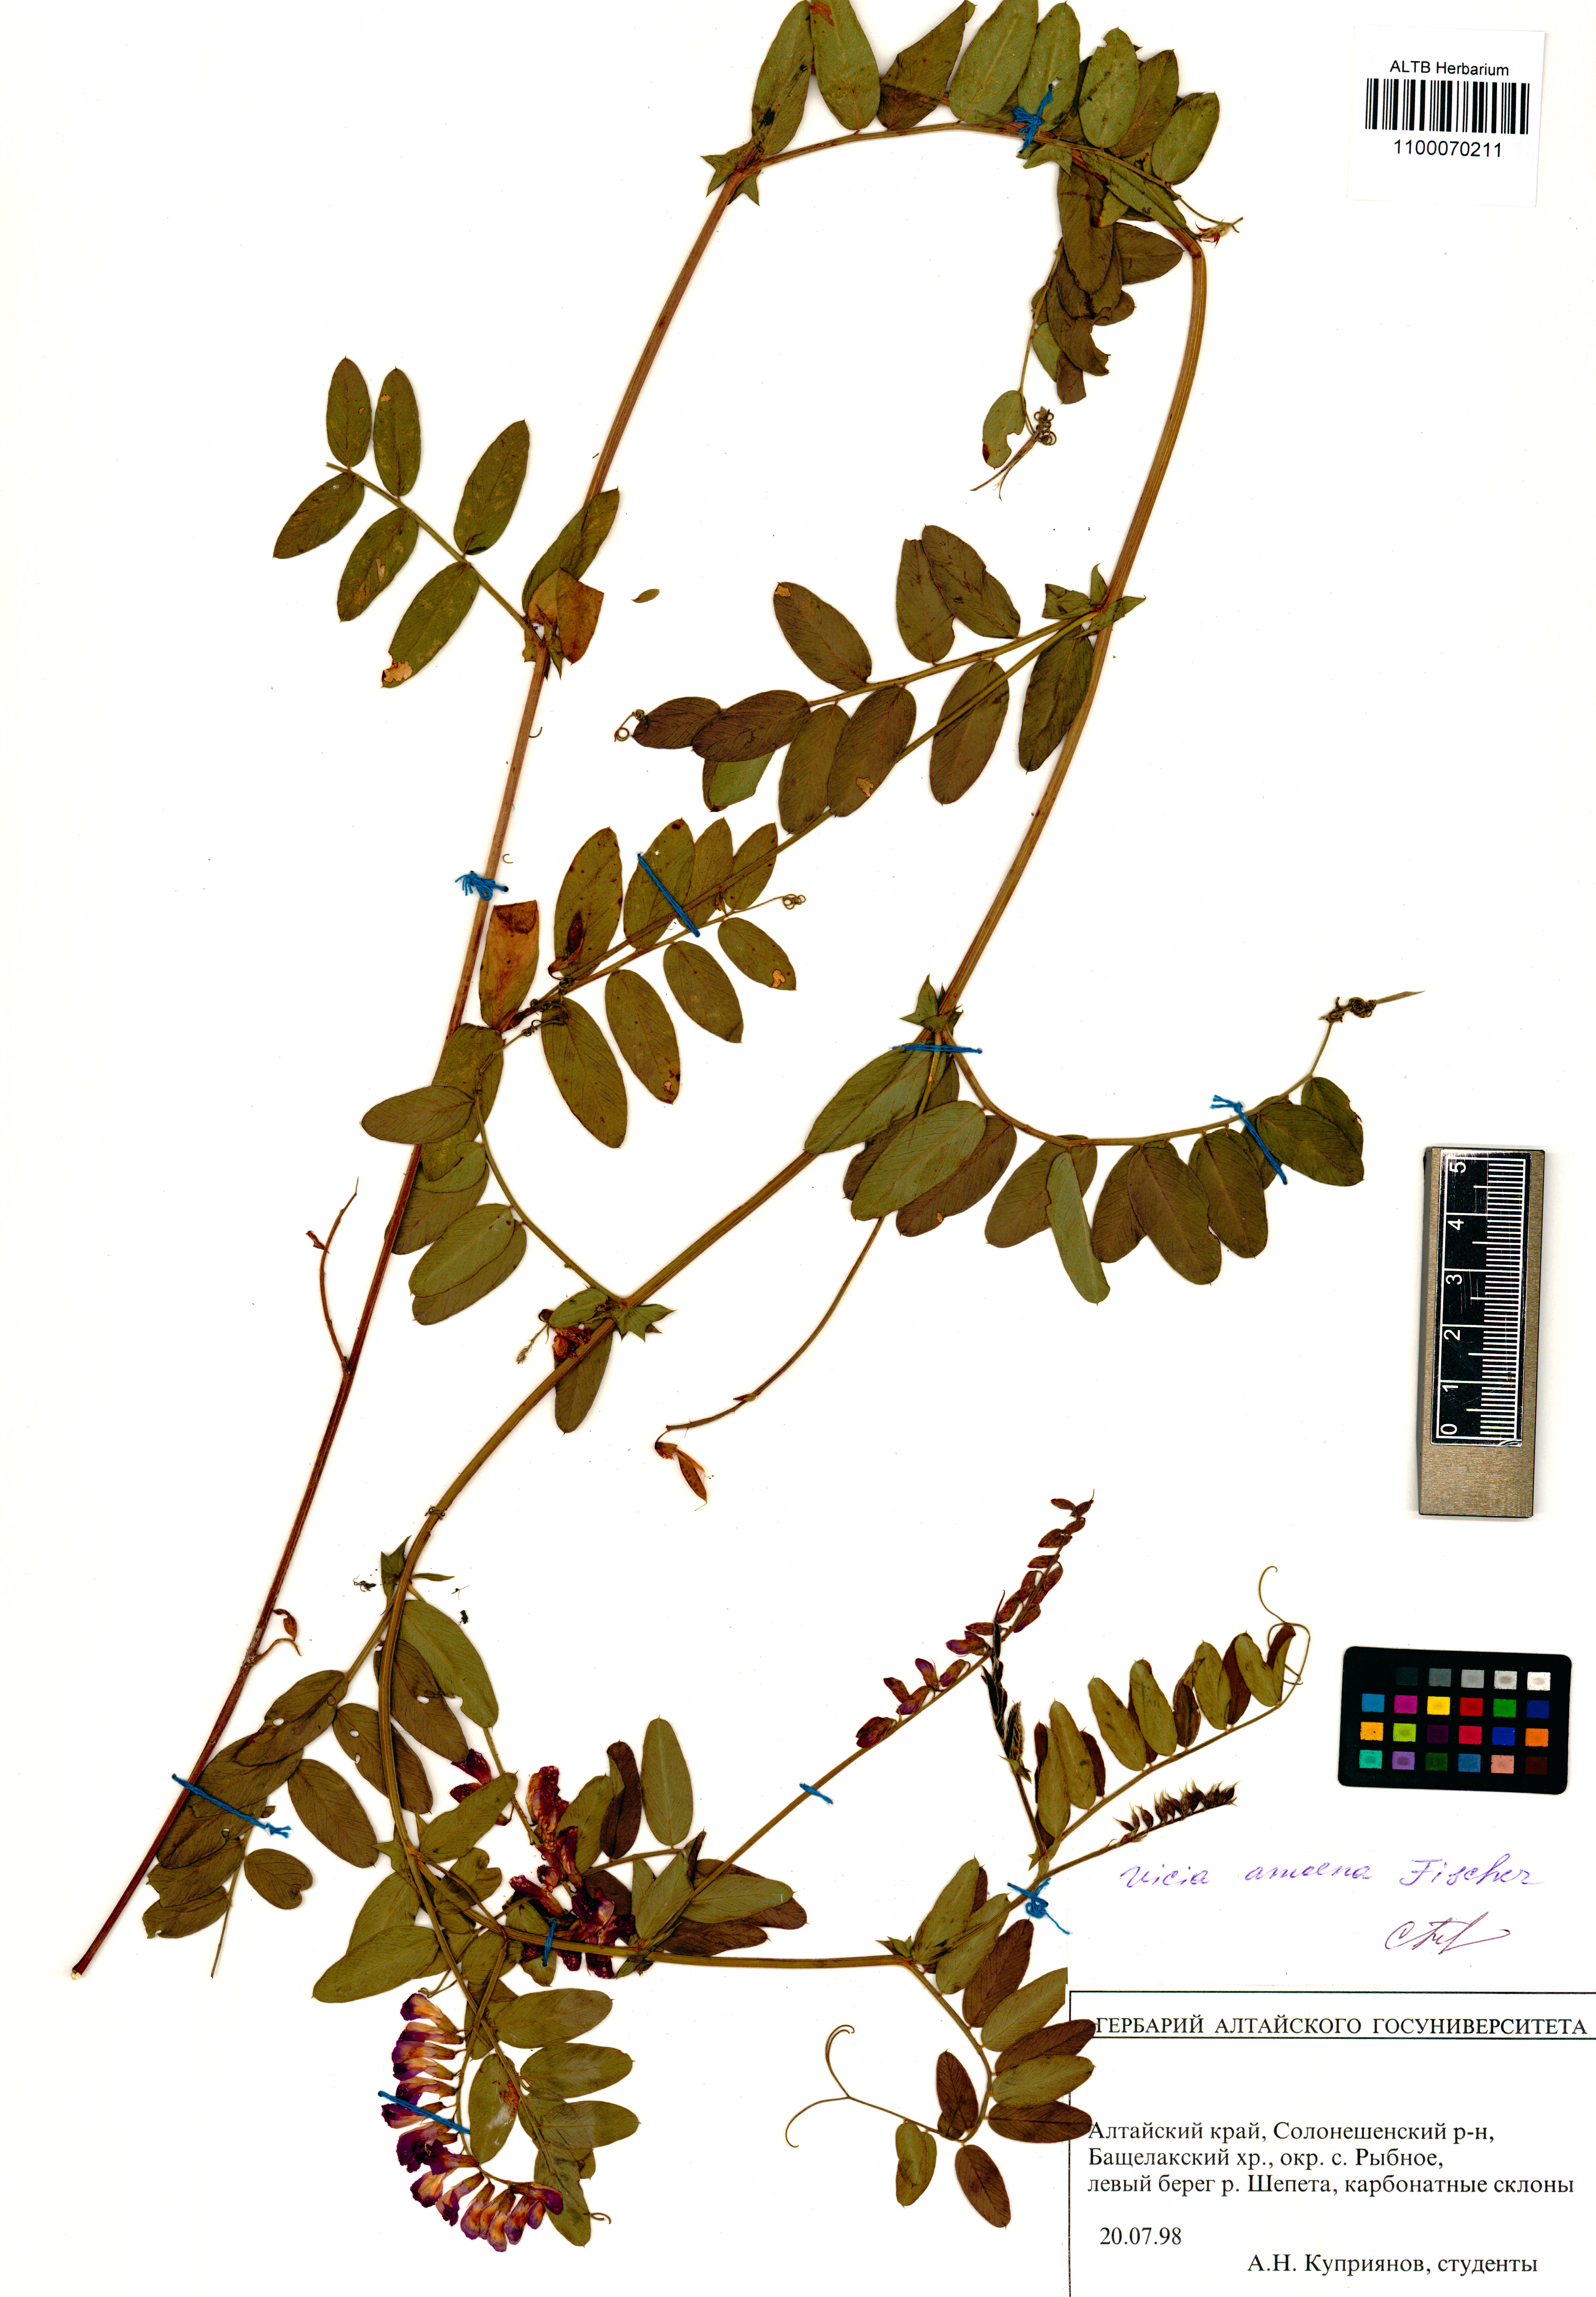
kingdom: Plantae
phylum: Tracheophyta
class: Magnoliopsida
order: Fabales
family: Fabaceae
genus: Vicia
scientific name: Vicia amoena
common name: Cheder ebs
